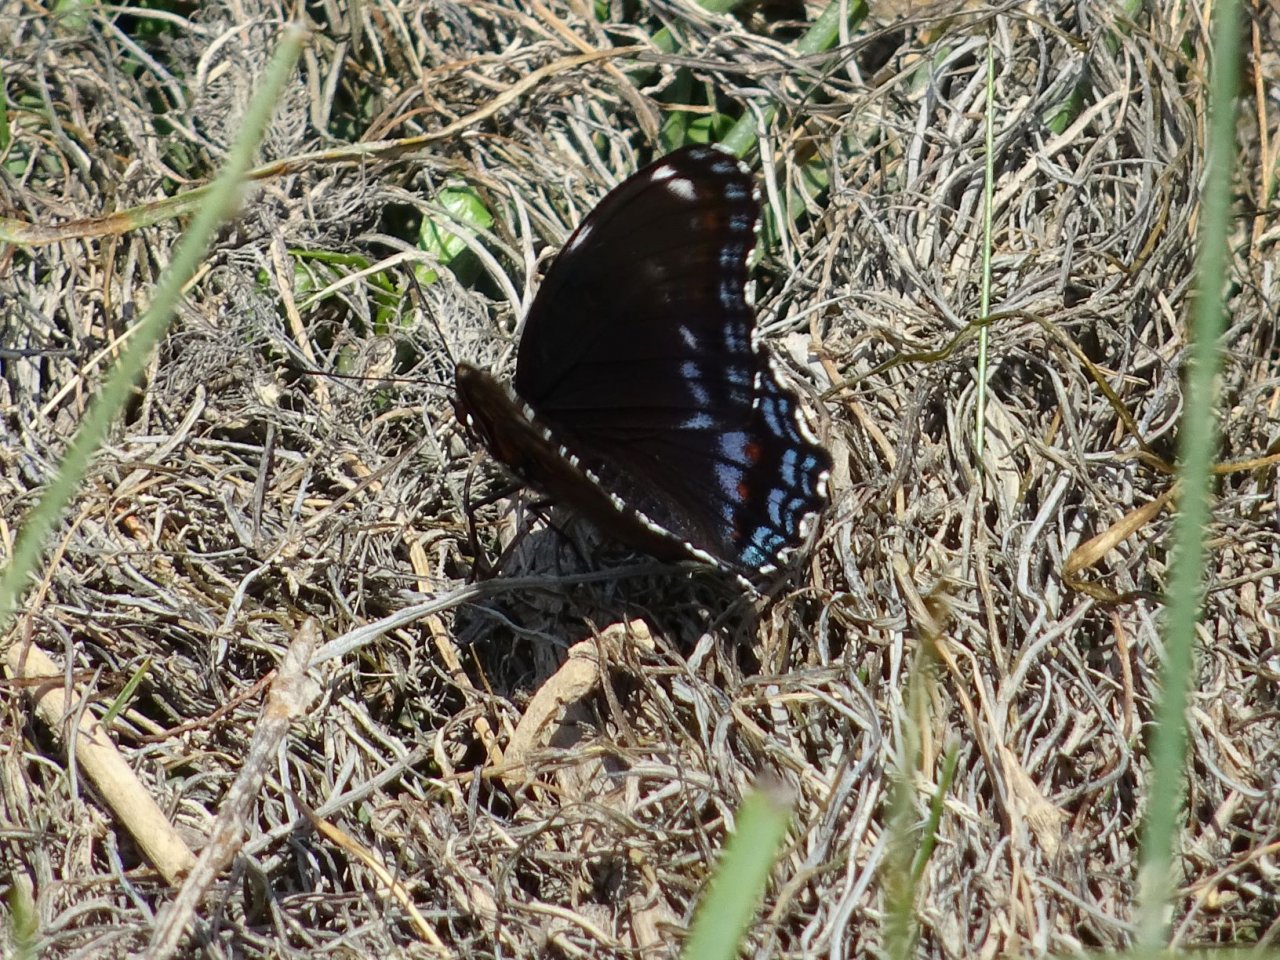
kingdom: Animalia
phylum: Arthropoda
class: Insecta
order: Lepidoptera
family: Nymphalidae
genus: Limenitis
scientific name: Limenitis astyanax
